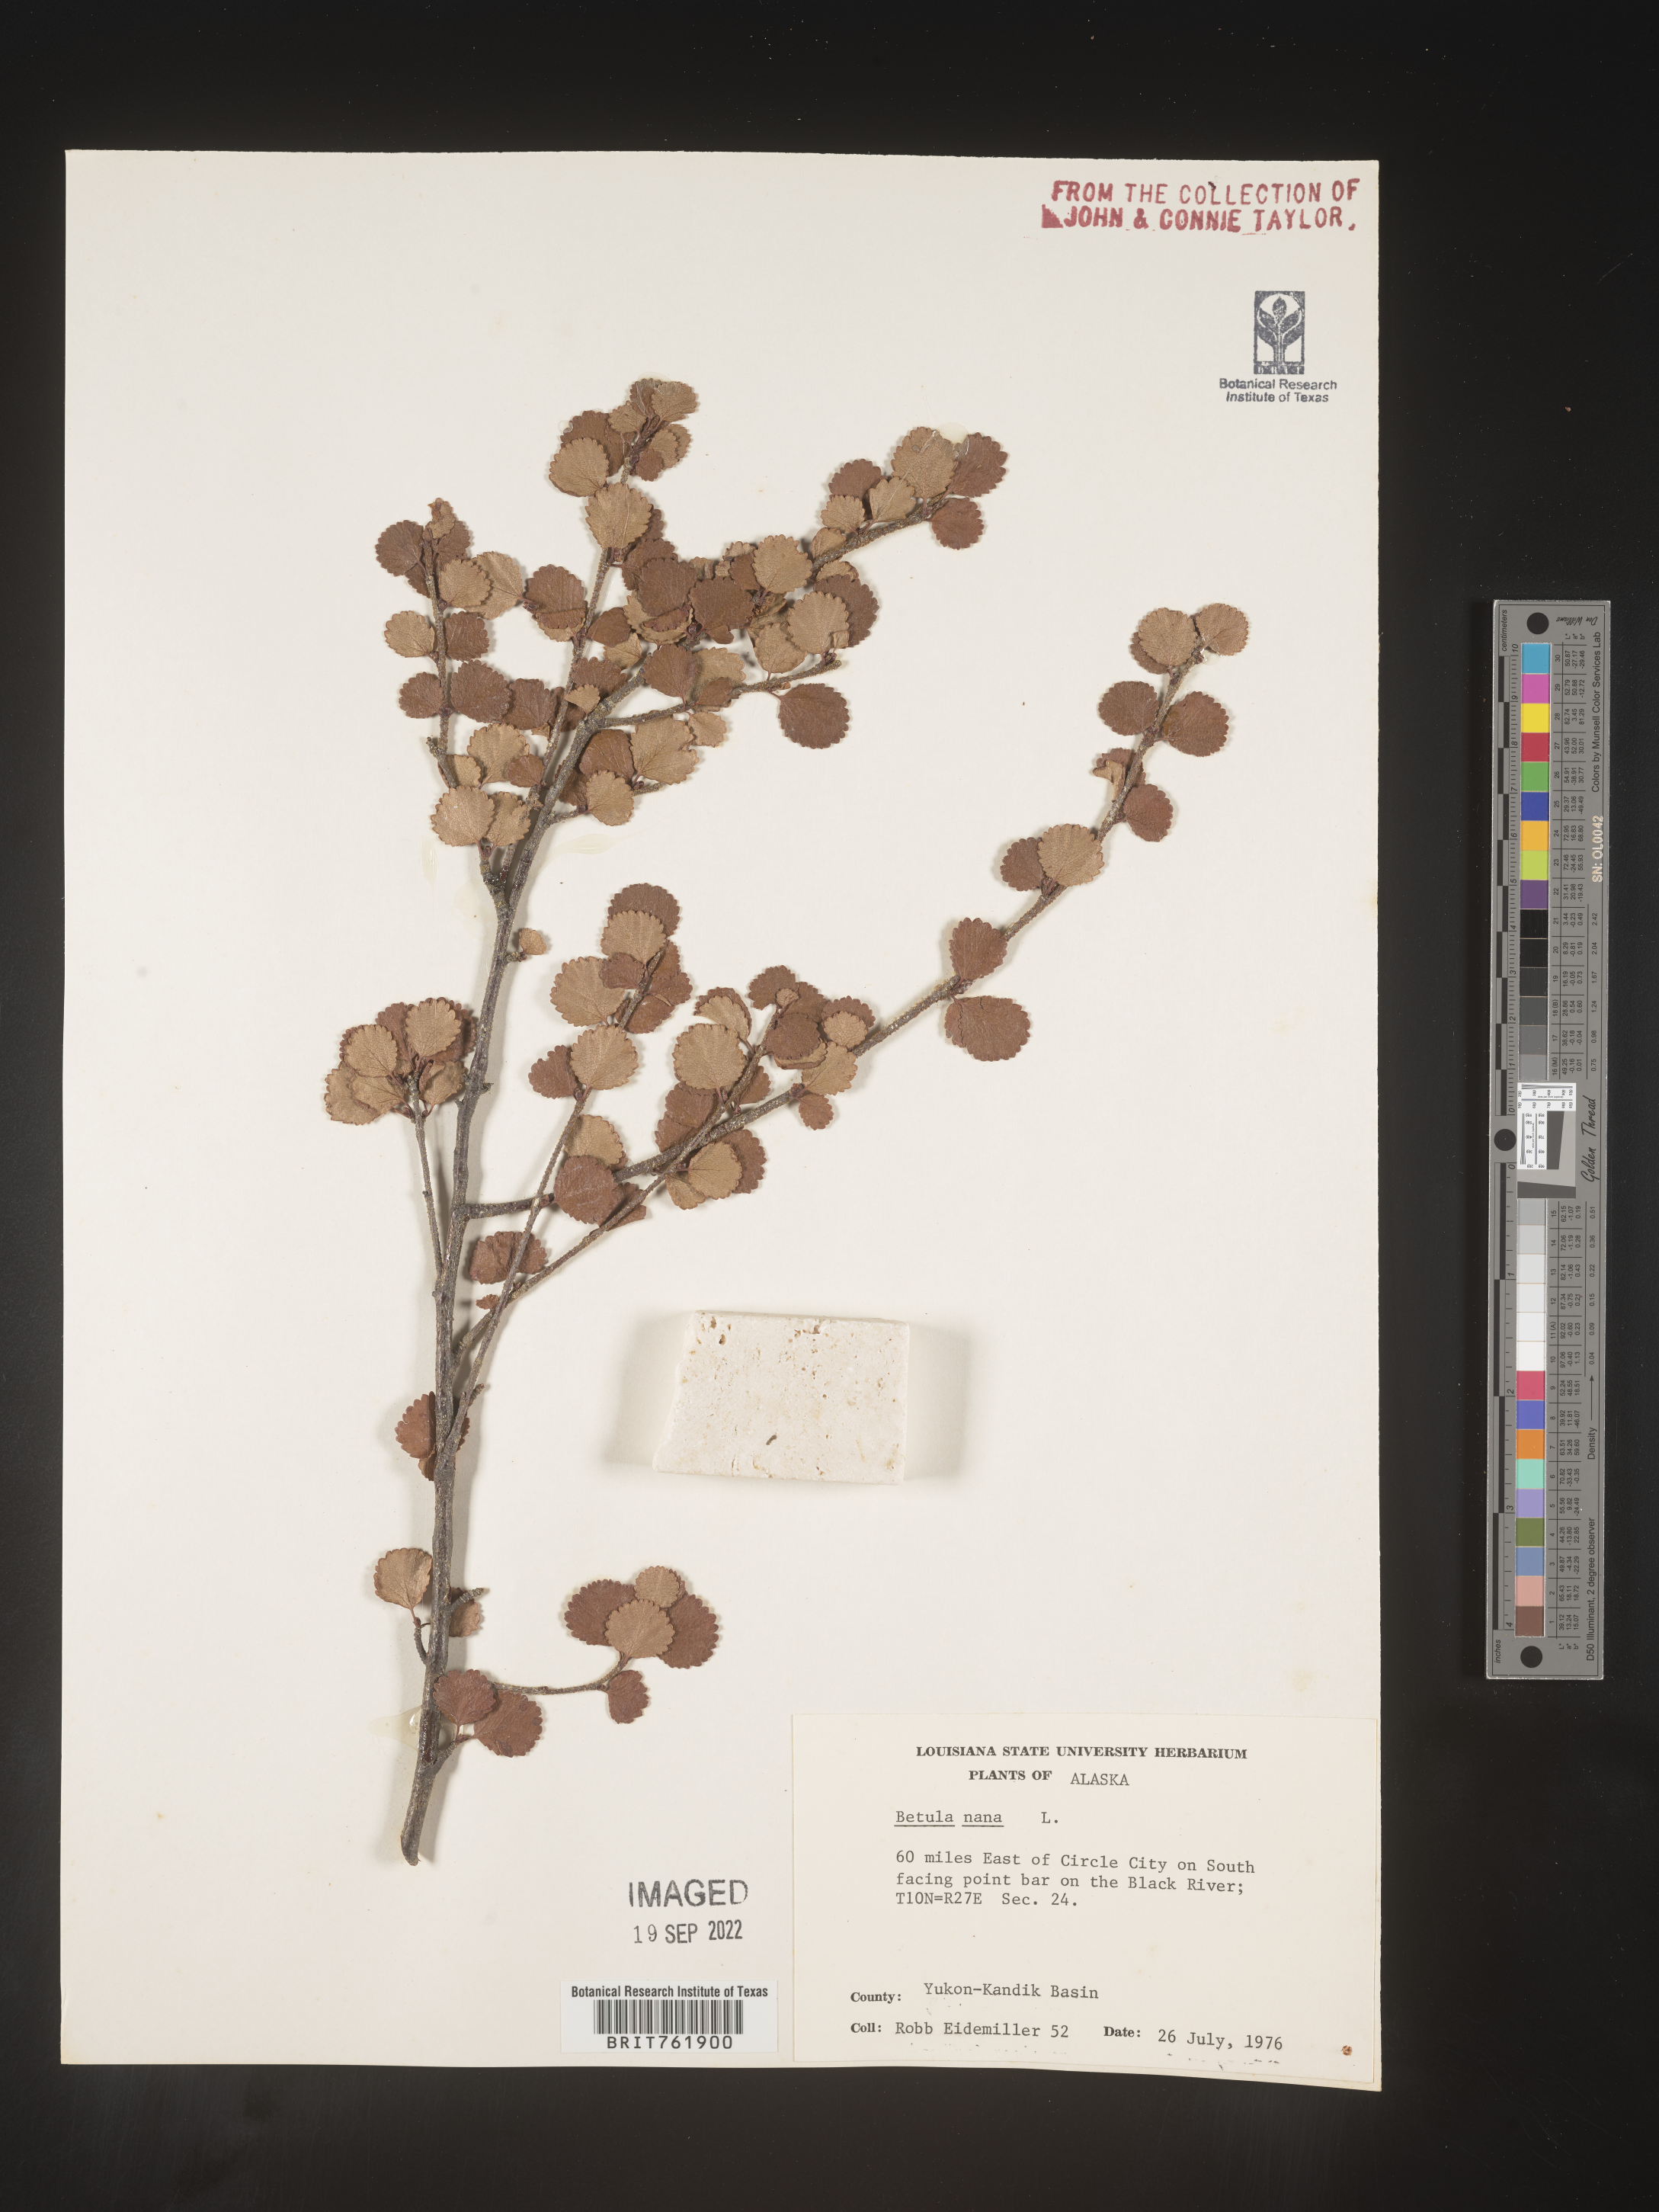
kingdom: Plantae
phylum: Tracheophyta
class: Magnoliopsida
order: Fagales
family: Betulaceae
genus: Betula
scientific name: Betula nana
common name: Arctic dwarf birch
